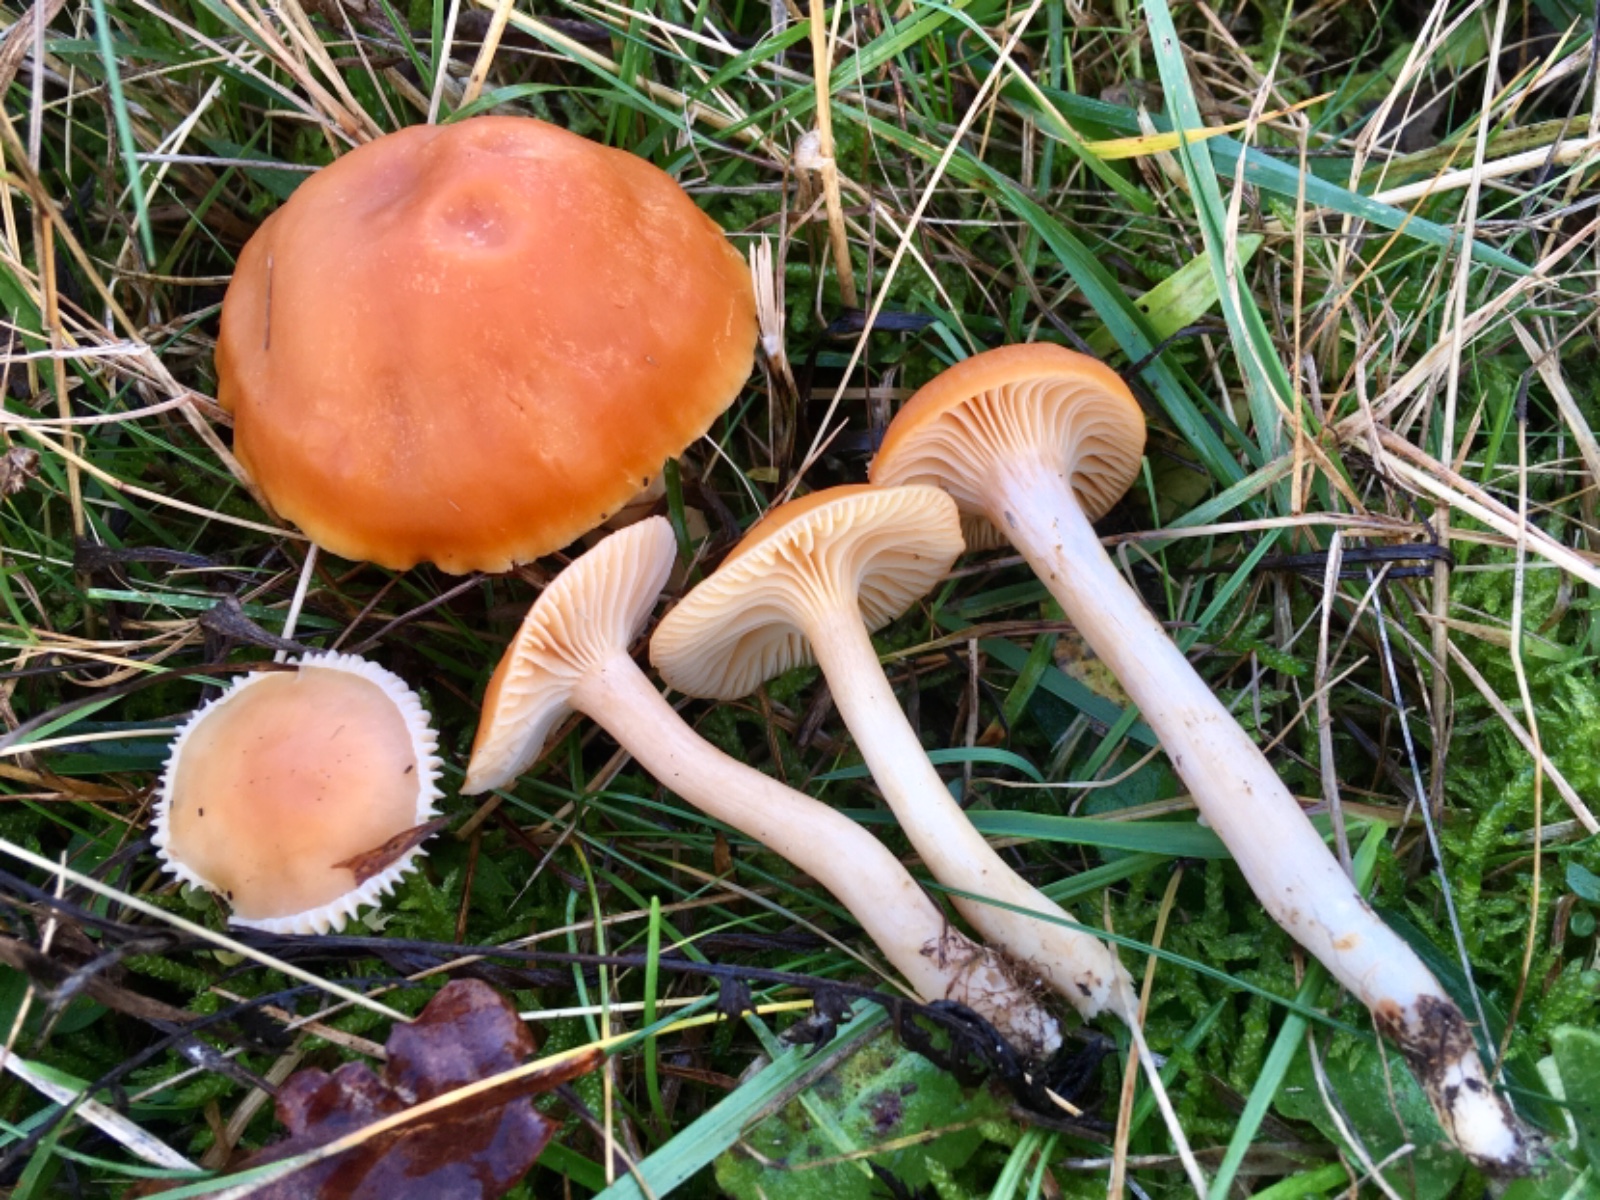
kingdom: Fungi
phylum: Basidiomycota
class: Agaricomycetes
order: Agaricales
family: Hygrophoraceae
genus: Cuphophyllus
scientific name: Cuphophyllus pratensis
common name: eng-vokshat
